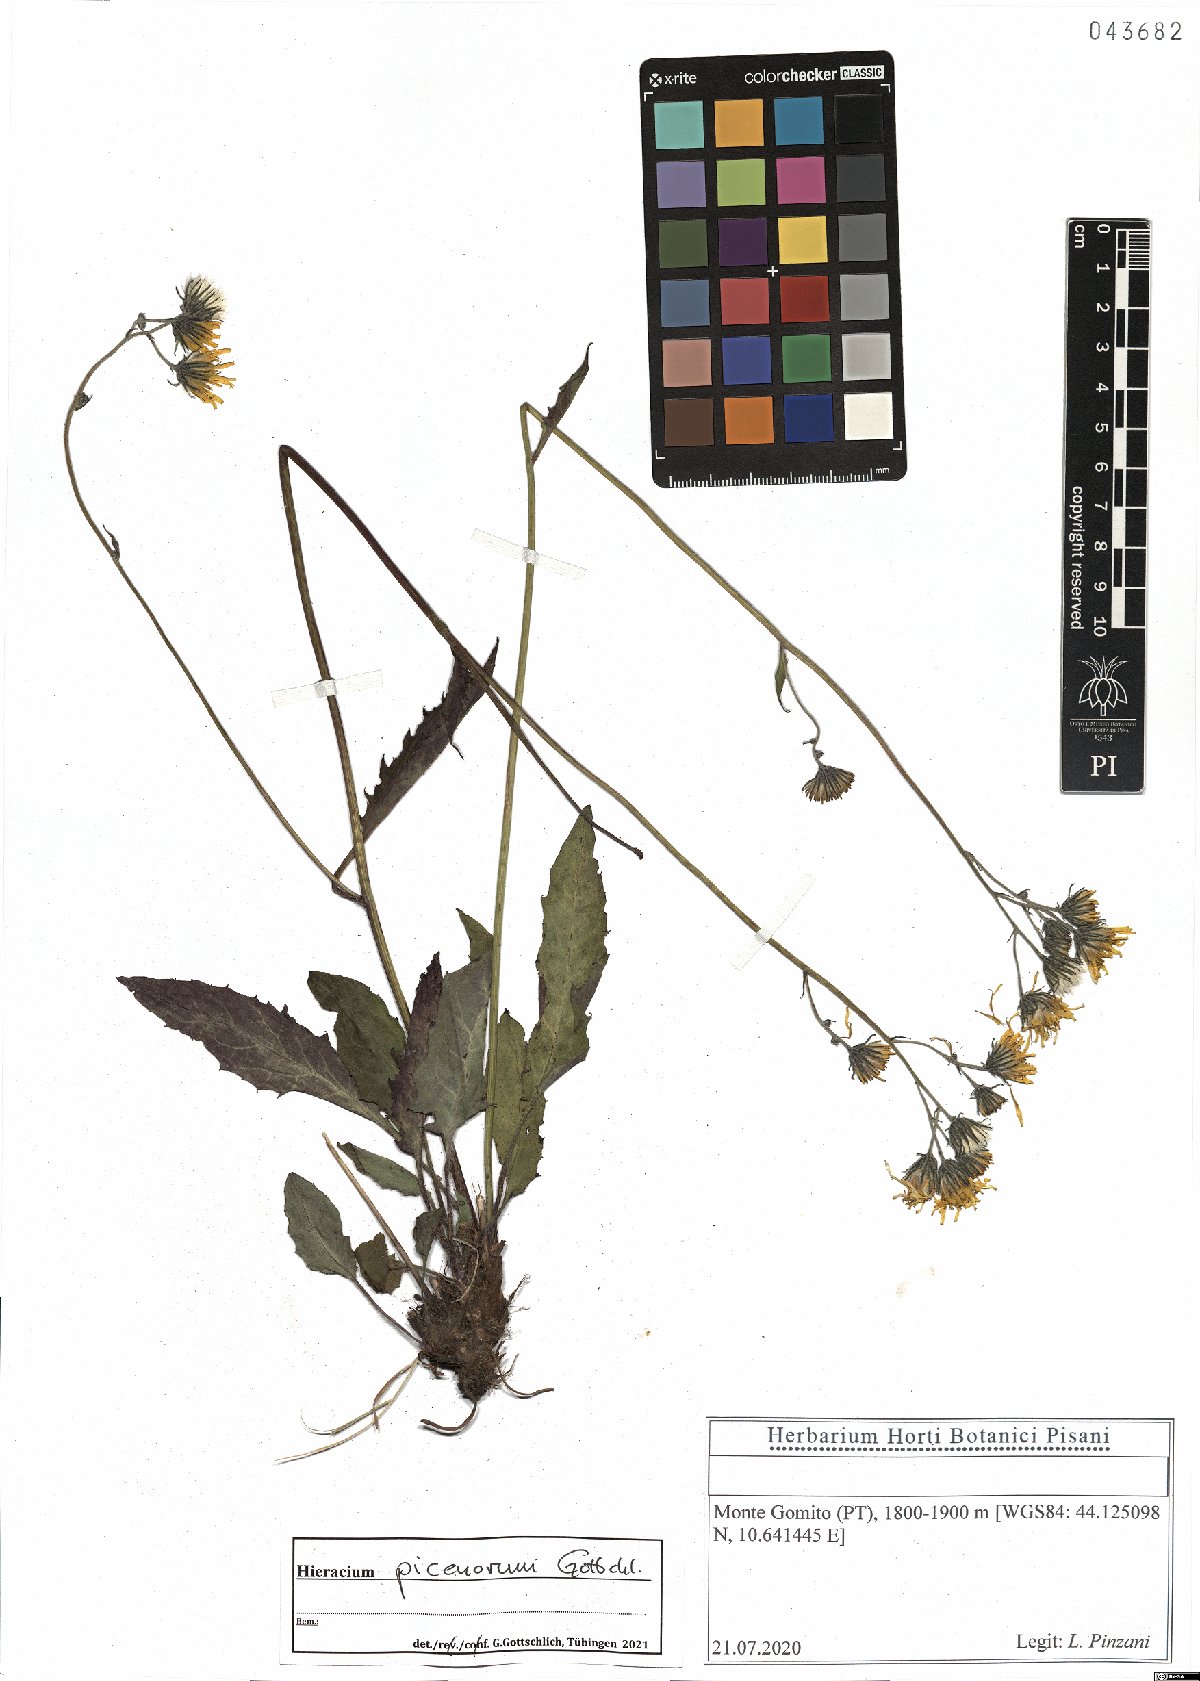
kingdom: Plantae
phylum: Tracheophyta
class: Magnoliopsida
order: Asterales
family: Asteraceae
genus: Hieracium
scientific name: Hieracium picenorum
